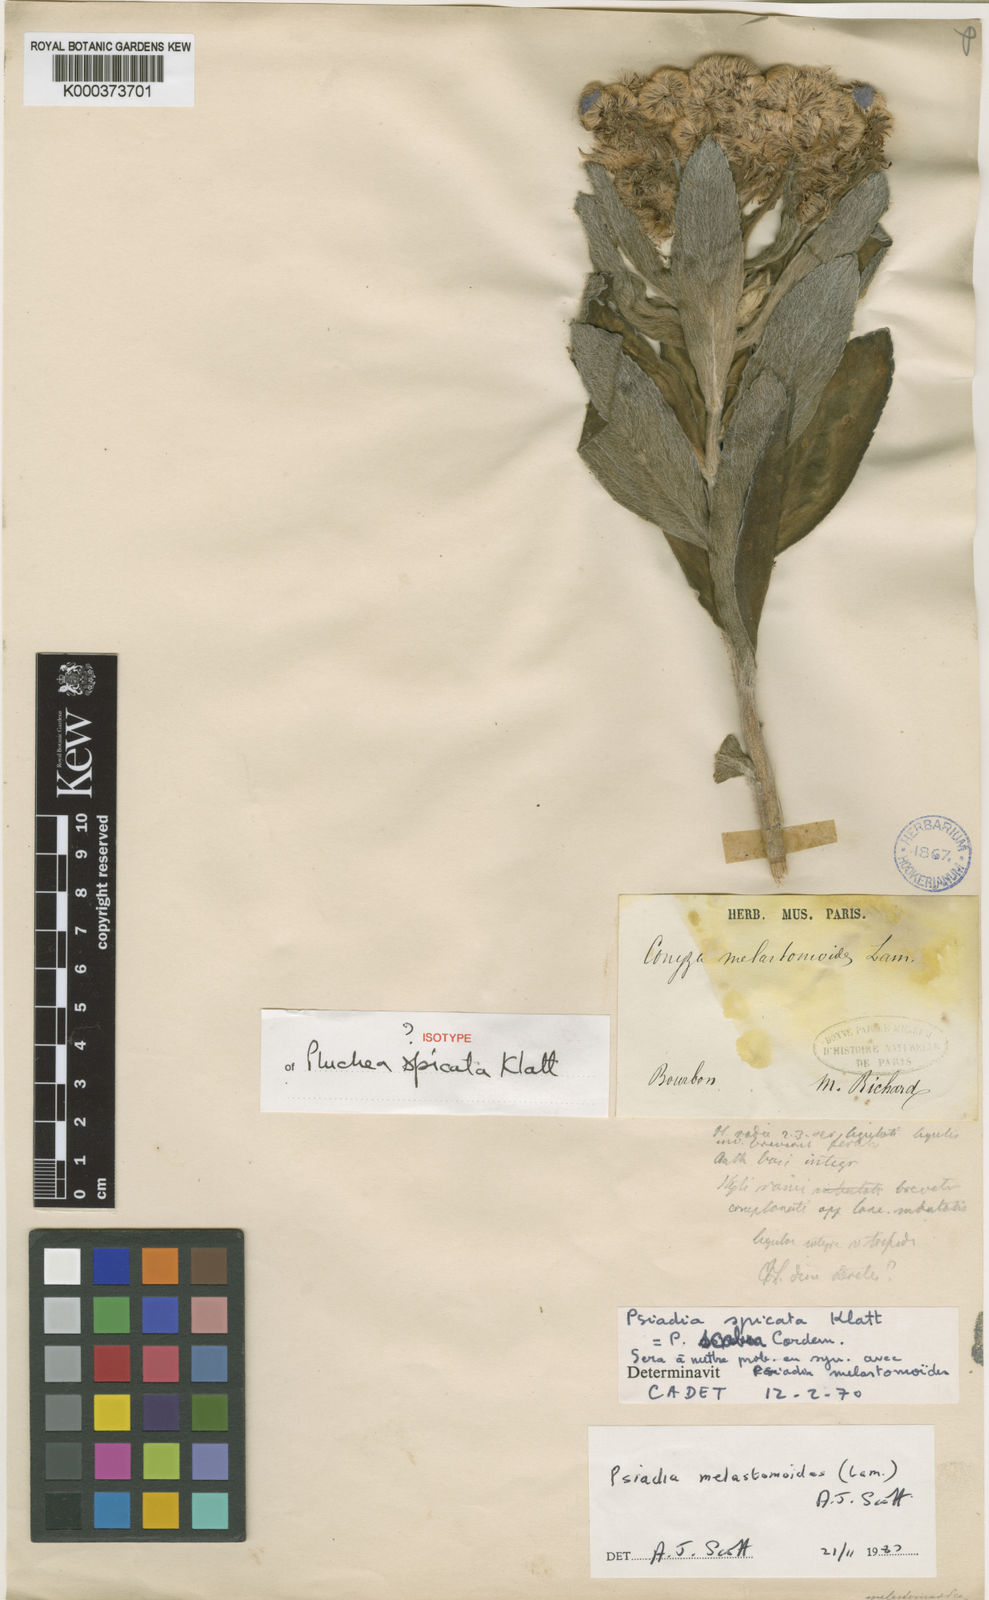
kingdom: Plantae
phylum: Tracheophyta
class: Magnoliopsida
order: Asterales
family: Asteraceae
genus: Psiadia
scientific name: Psiadia
